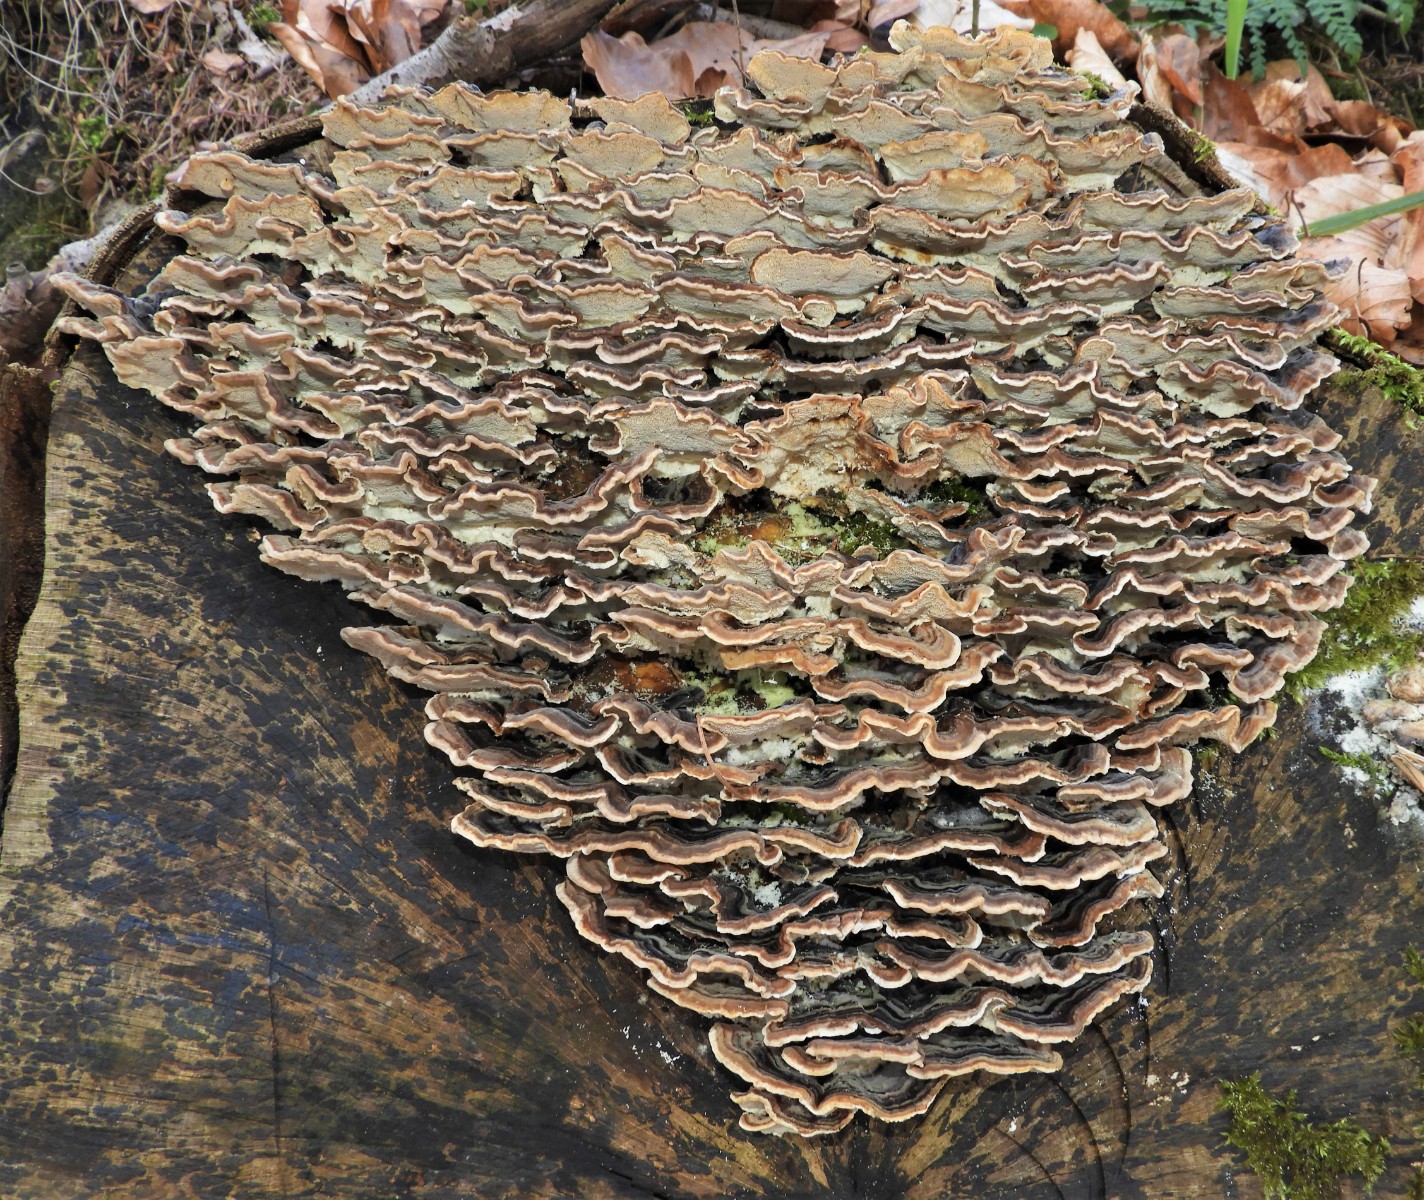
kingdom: Fungi
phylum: Basidiomycota
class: Agaricomycetes
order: Polyporales
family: Polyporaceae
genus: Trametes
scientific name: Trametes versicolor
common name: broget læderporesvamp
